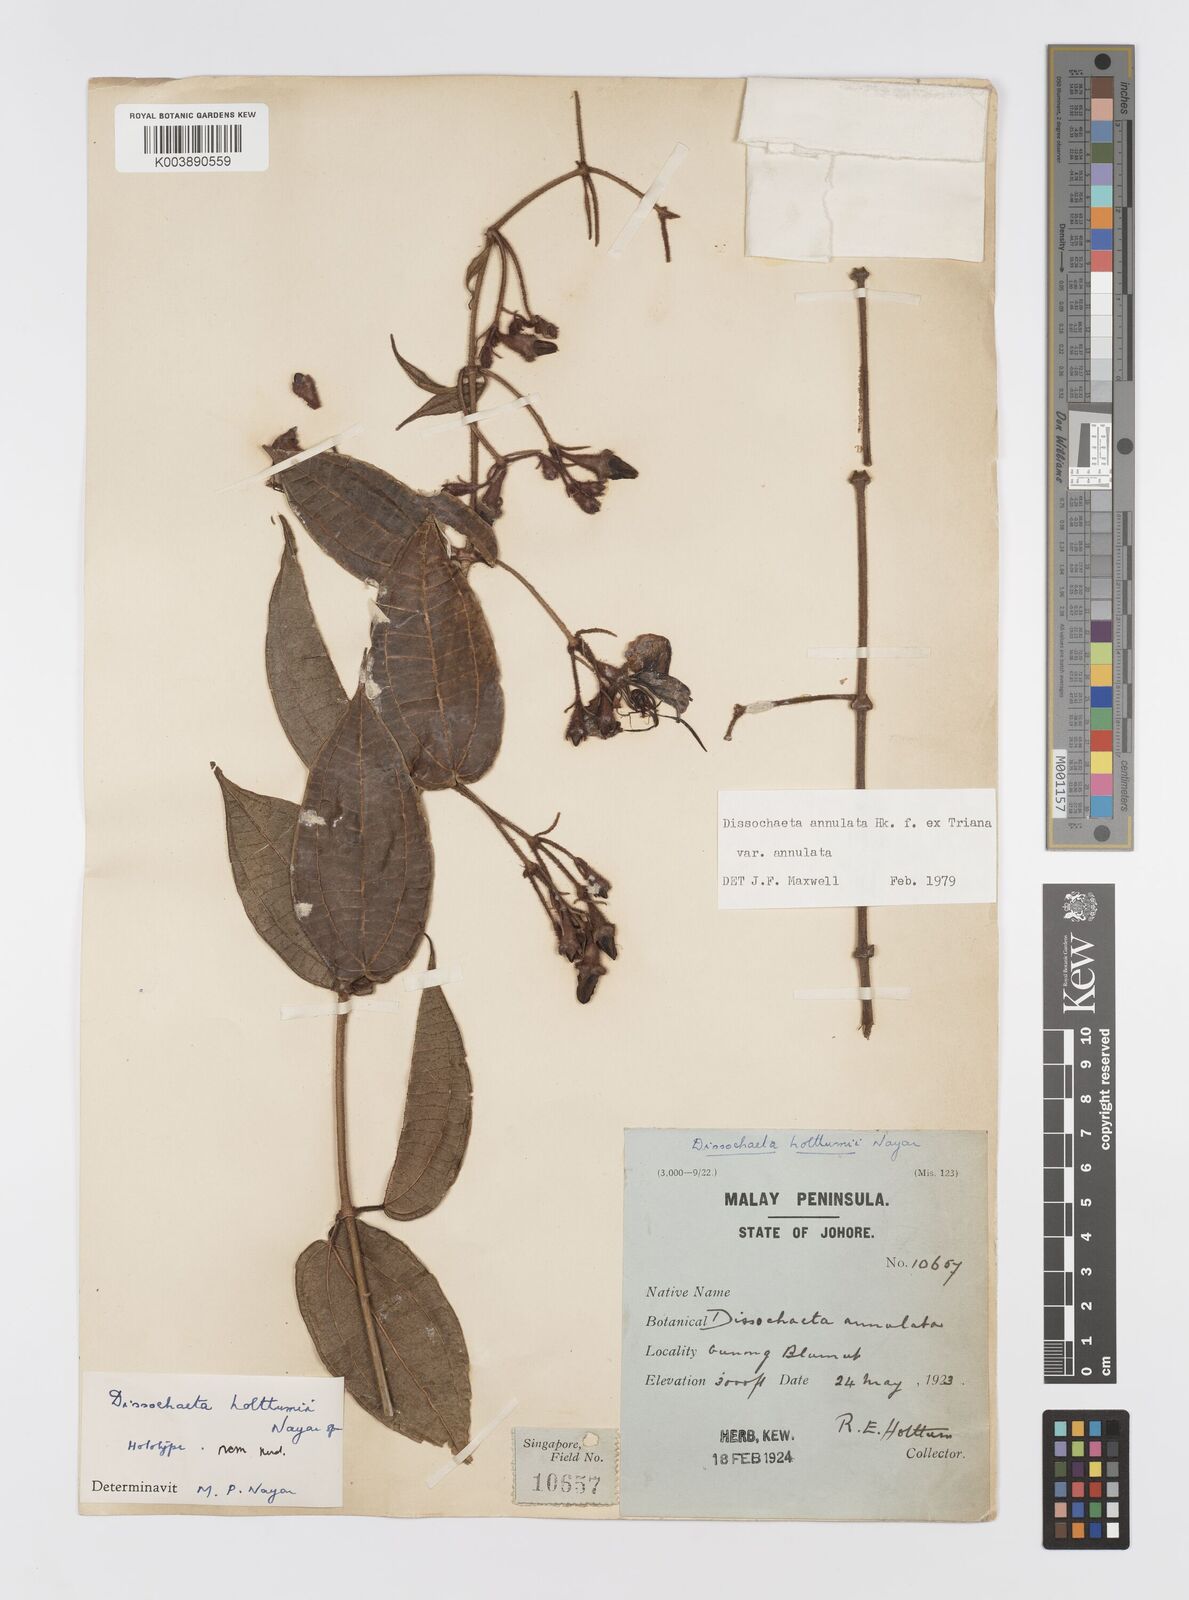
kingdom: Plantae
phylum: Tracheophyta
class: Magnoliopsida
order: Myrtales
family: Melastomataceae
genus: Dissochaeta
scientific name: Dissochaeta annulata
